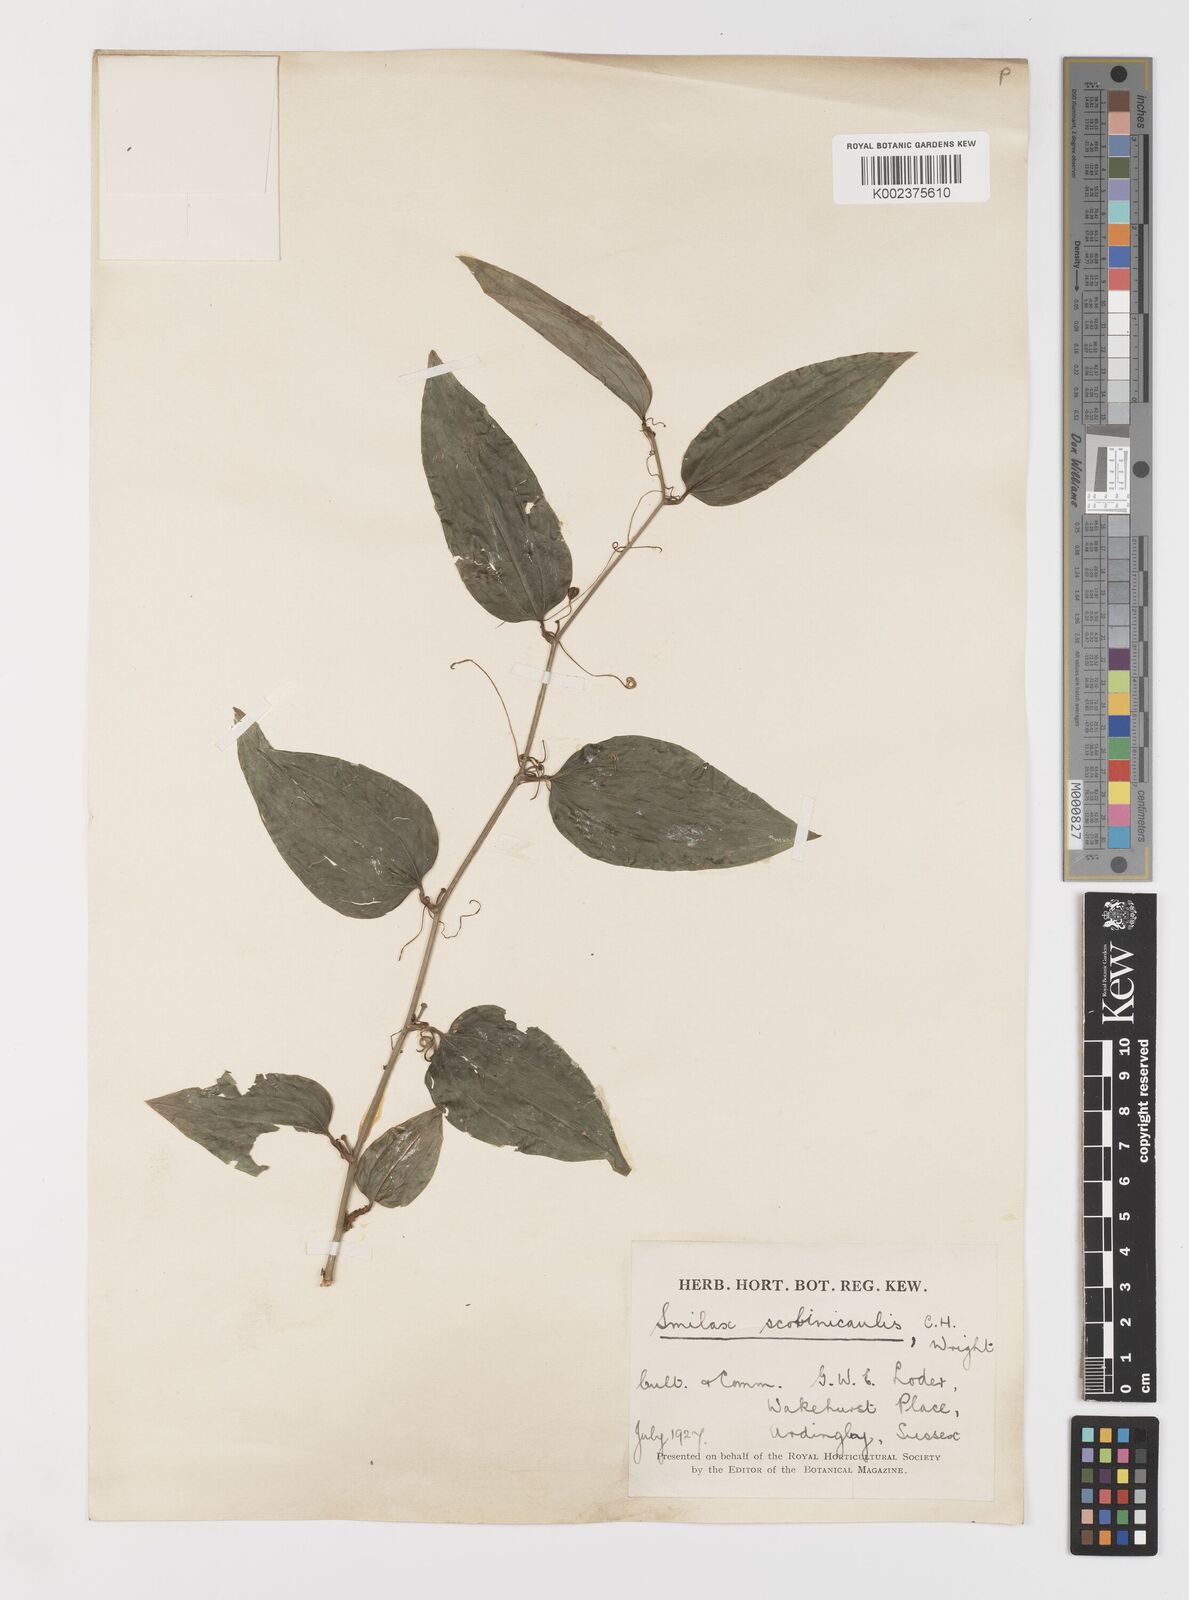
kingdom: Plantae
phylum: Tracheophyta
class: Liliopsida
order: Liliales
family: Smilacaceae
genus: Smilax
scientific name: Smilax scobinicaulis
